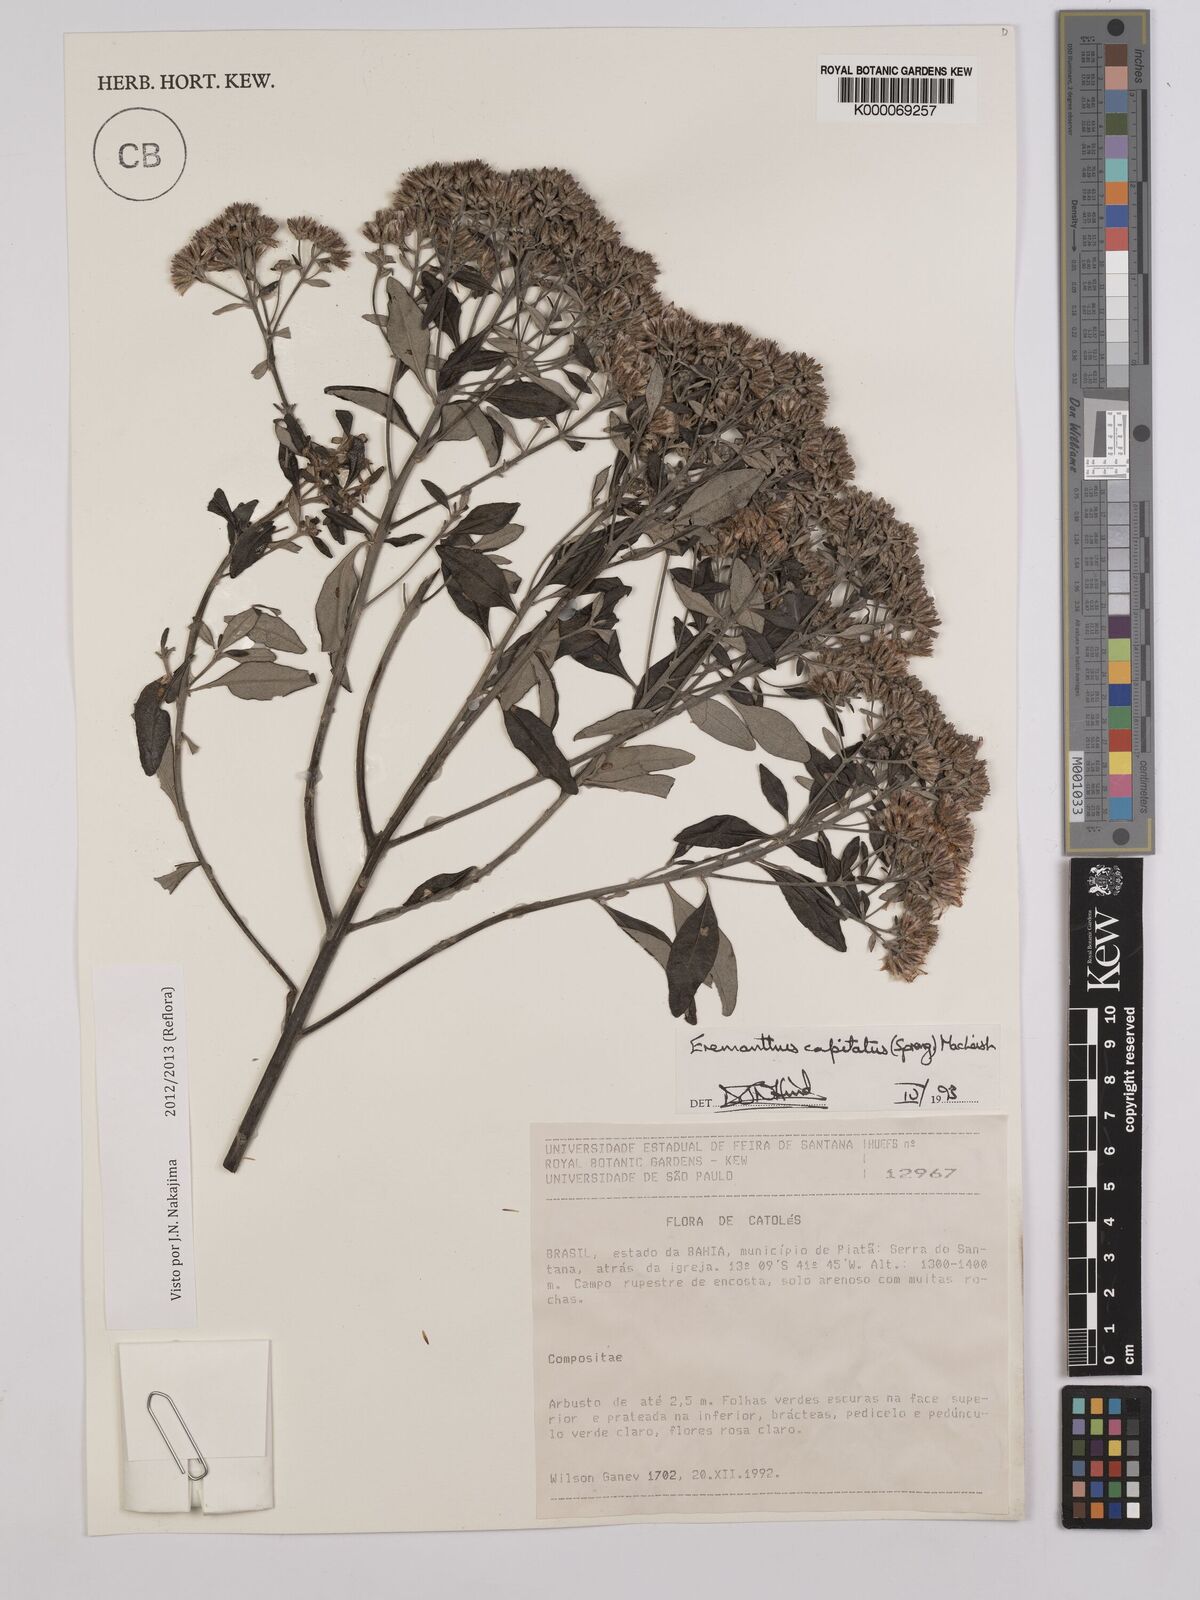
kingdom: Plantae
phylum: Tracheophyta
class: Magnoliopsida
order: Asterales
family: Asteraceae
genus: Eremanthus
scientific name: Eremanthus capitatus
